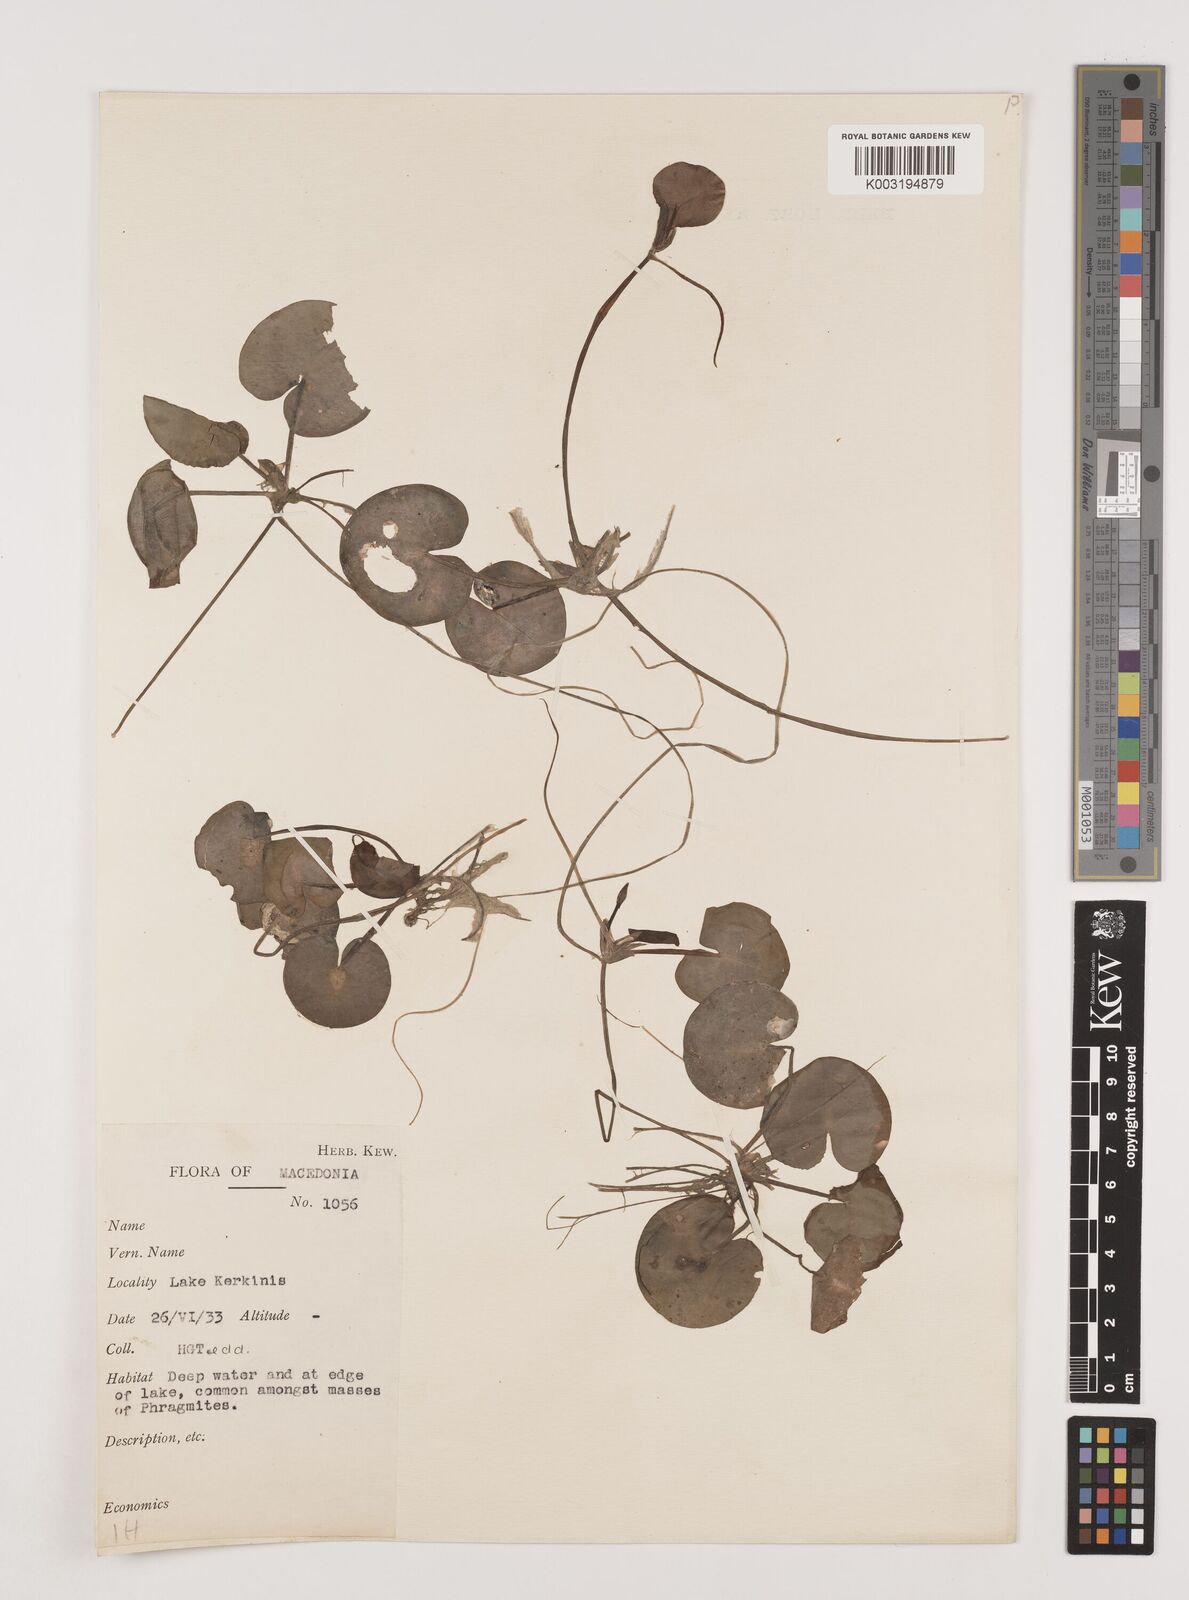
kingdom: Plantae
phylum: Tracheophyta
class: Liliopsida
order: Alismatales
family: Hydrocharitaceae
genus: Hydrocharis
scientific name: Hydrocharis morsus-ranae
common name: Frogbit
